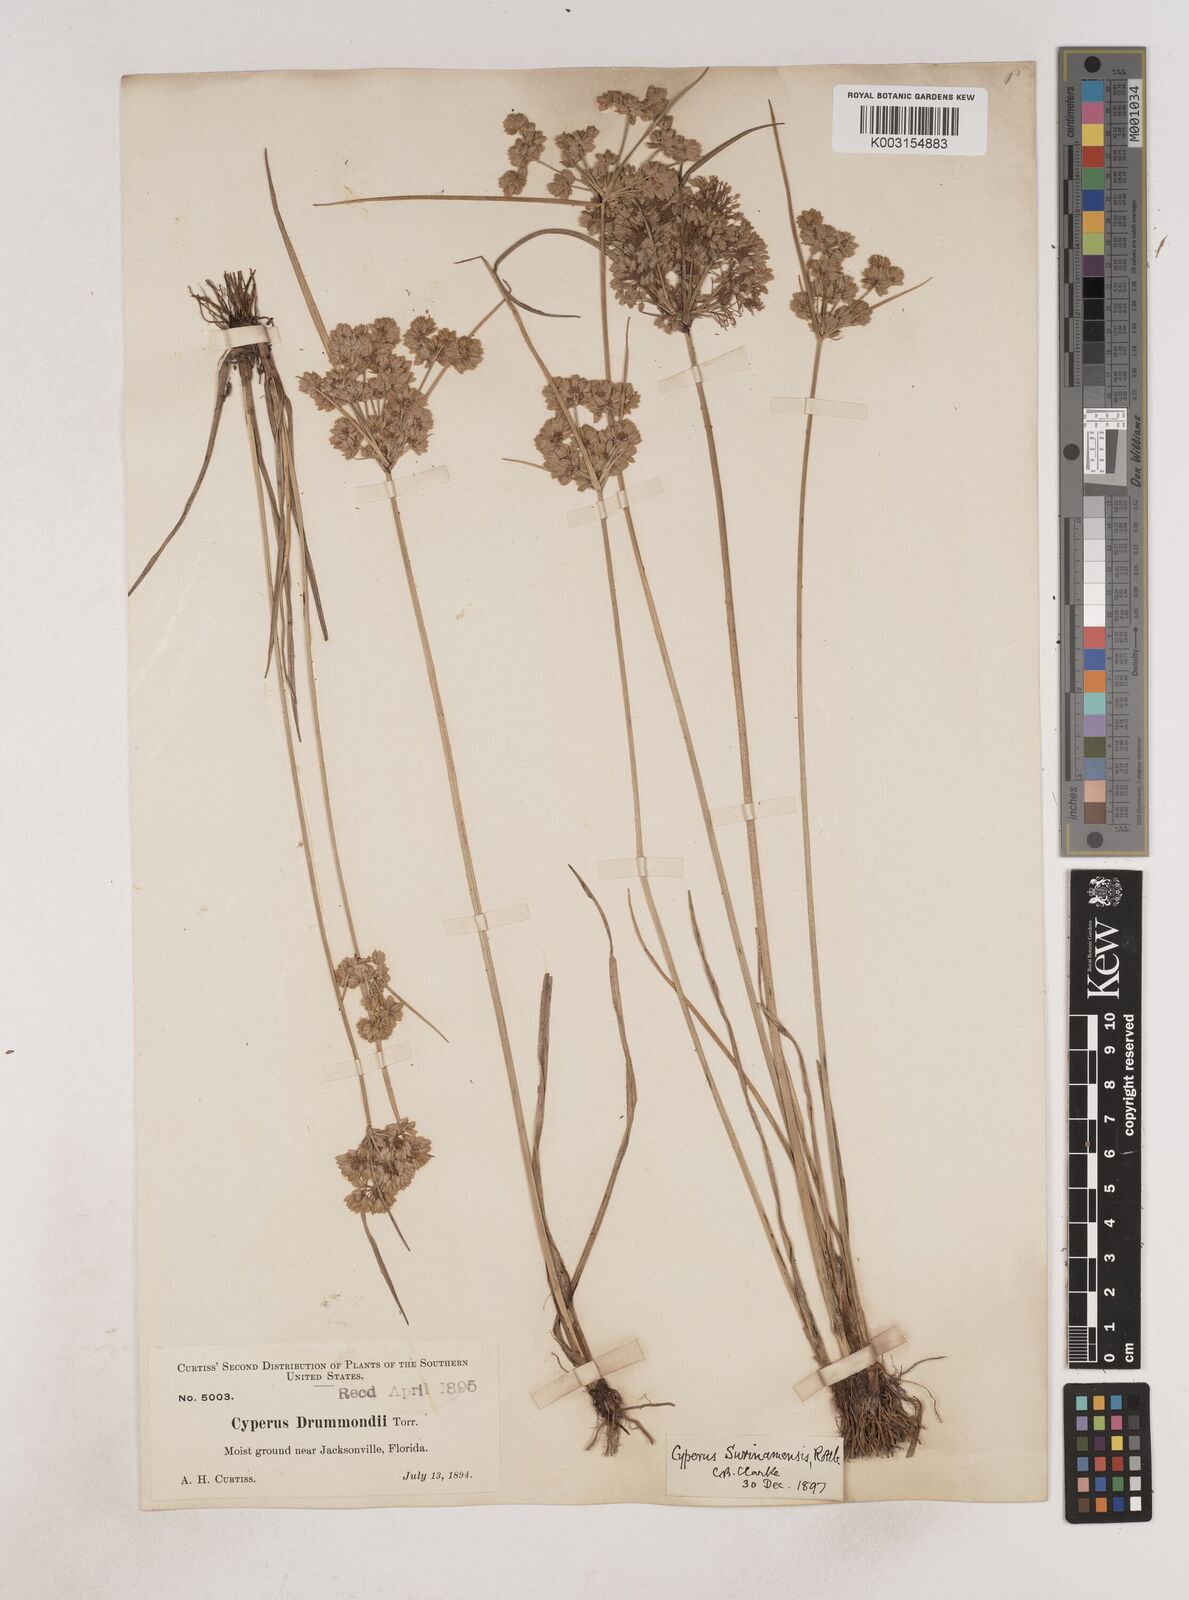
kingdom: Plantae
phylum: Tracheophyta
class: Liliopsida
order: Poales
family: Cyperaceae
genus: Cyperus
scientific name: Cyperus surinamensis
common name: Tropical flat sedge
